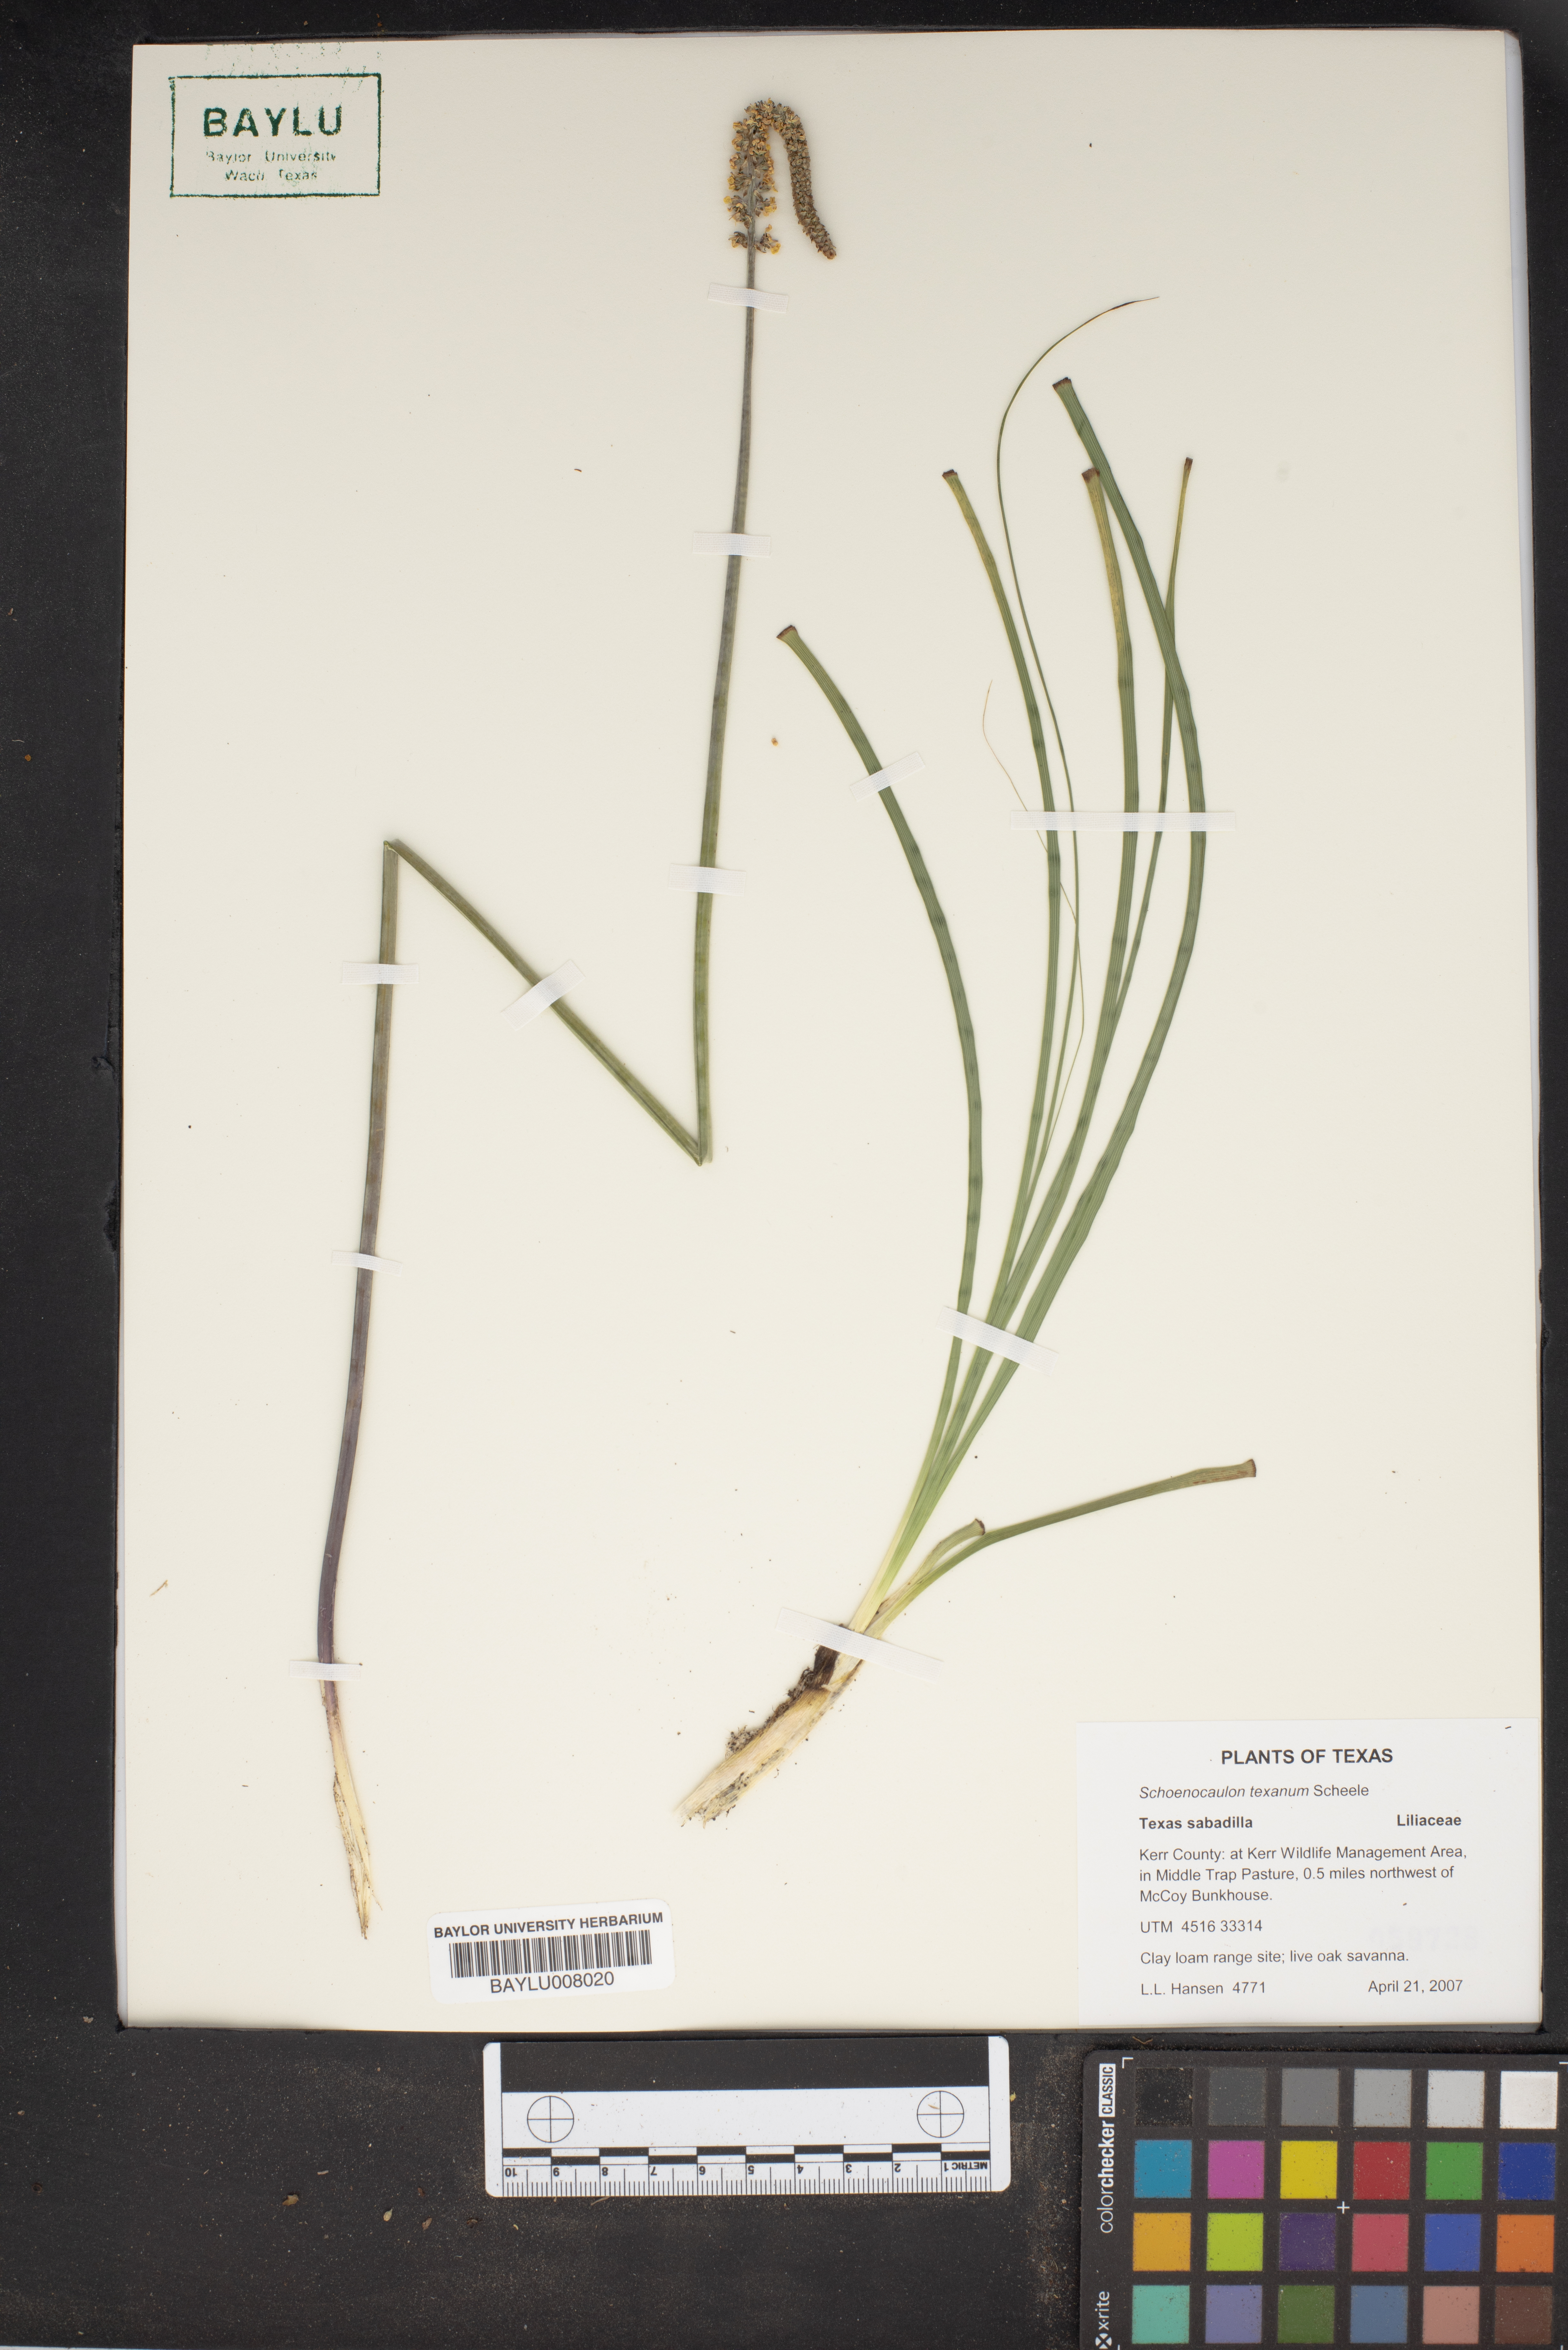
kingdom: Plantae
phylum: Tracheophyta
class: Liliopsida
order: Liliales
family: Melanthiaceae
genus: Schoenocaulon
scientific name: Schoenocaulon texanum
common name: Texas feather-shank
